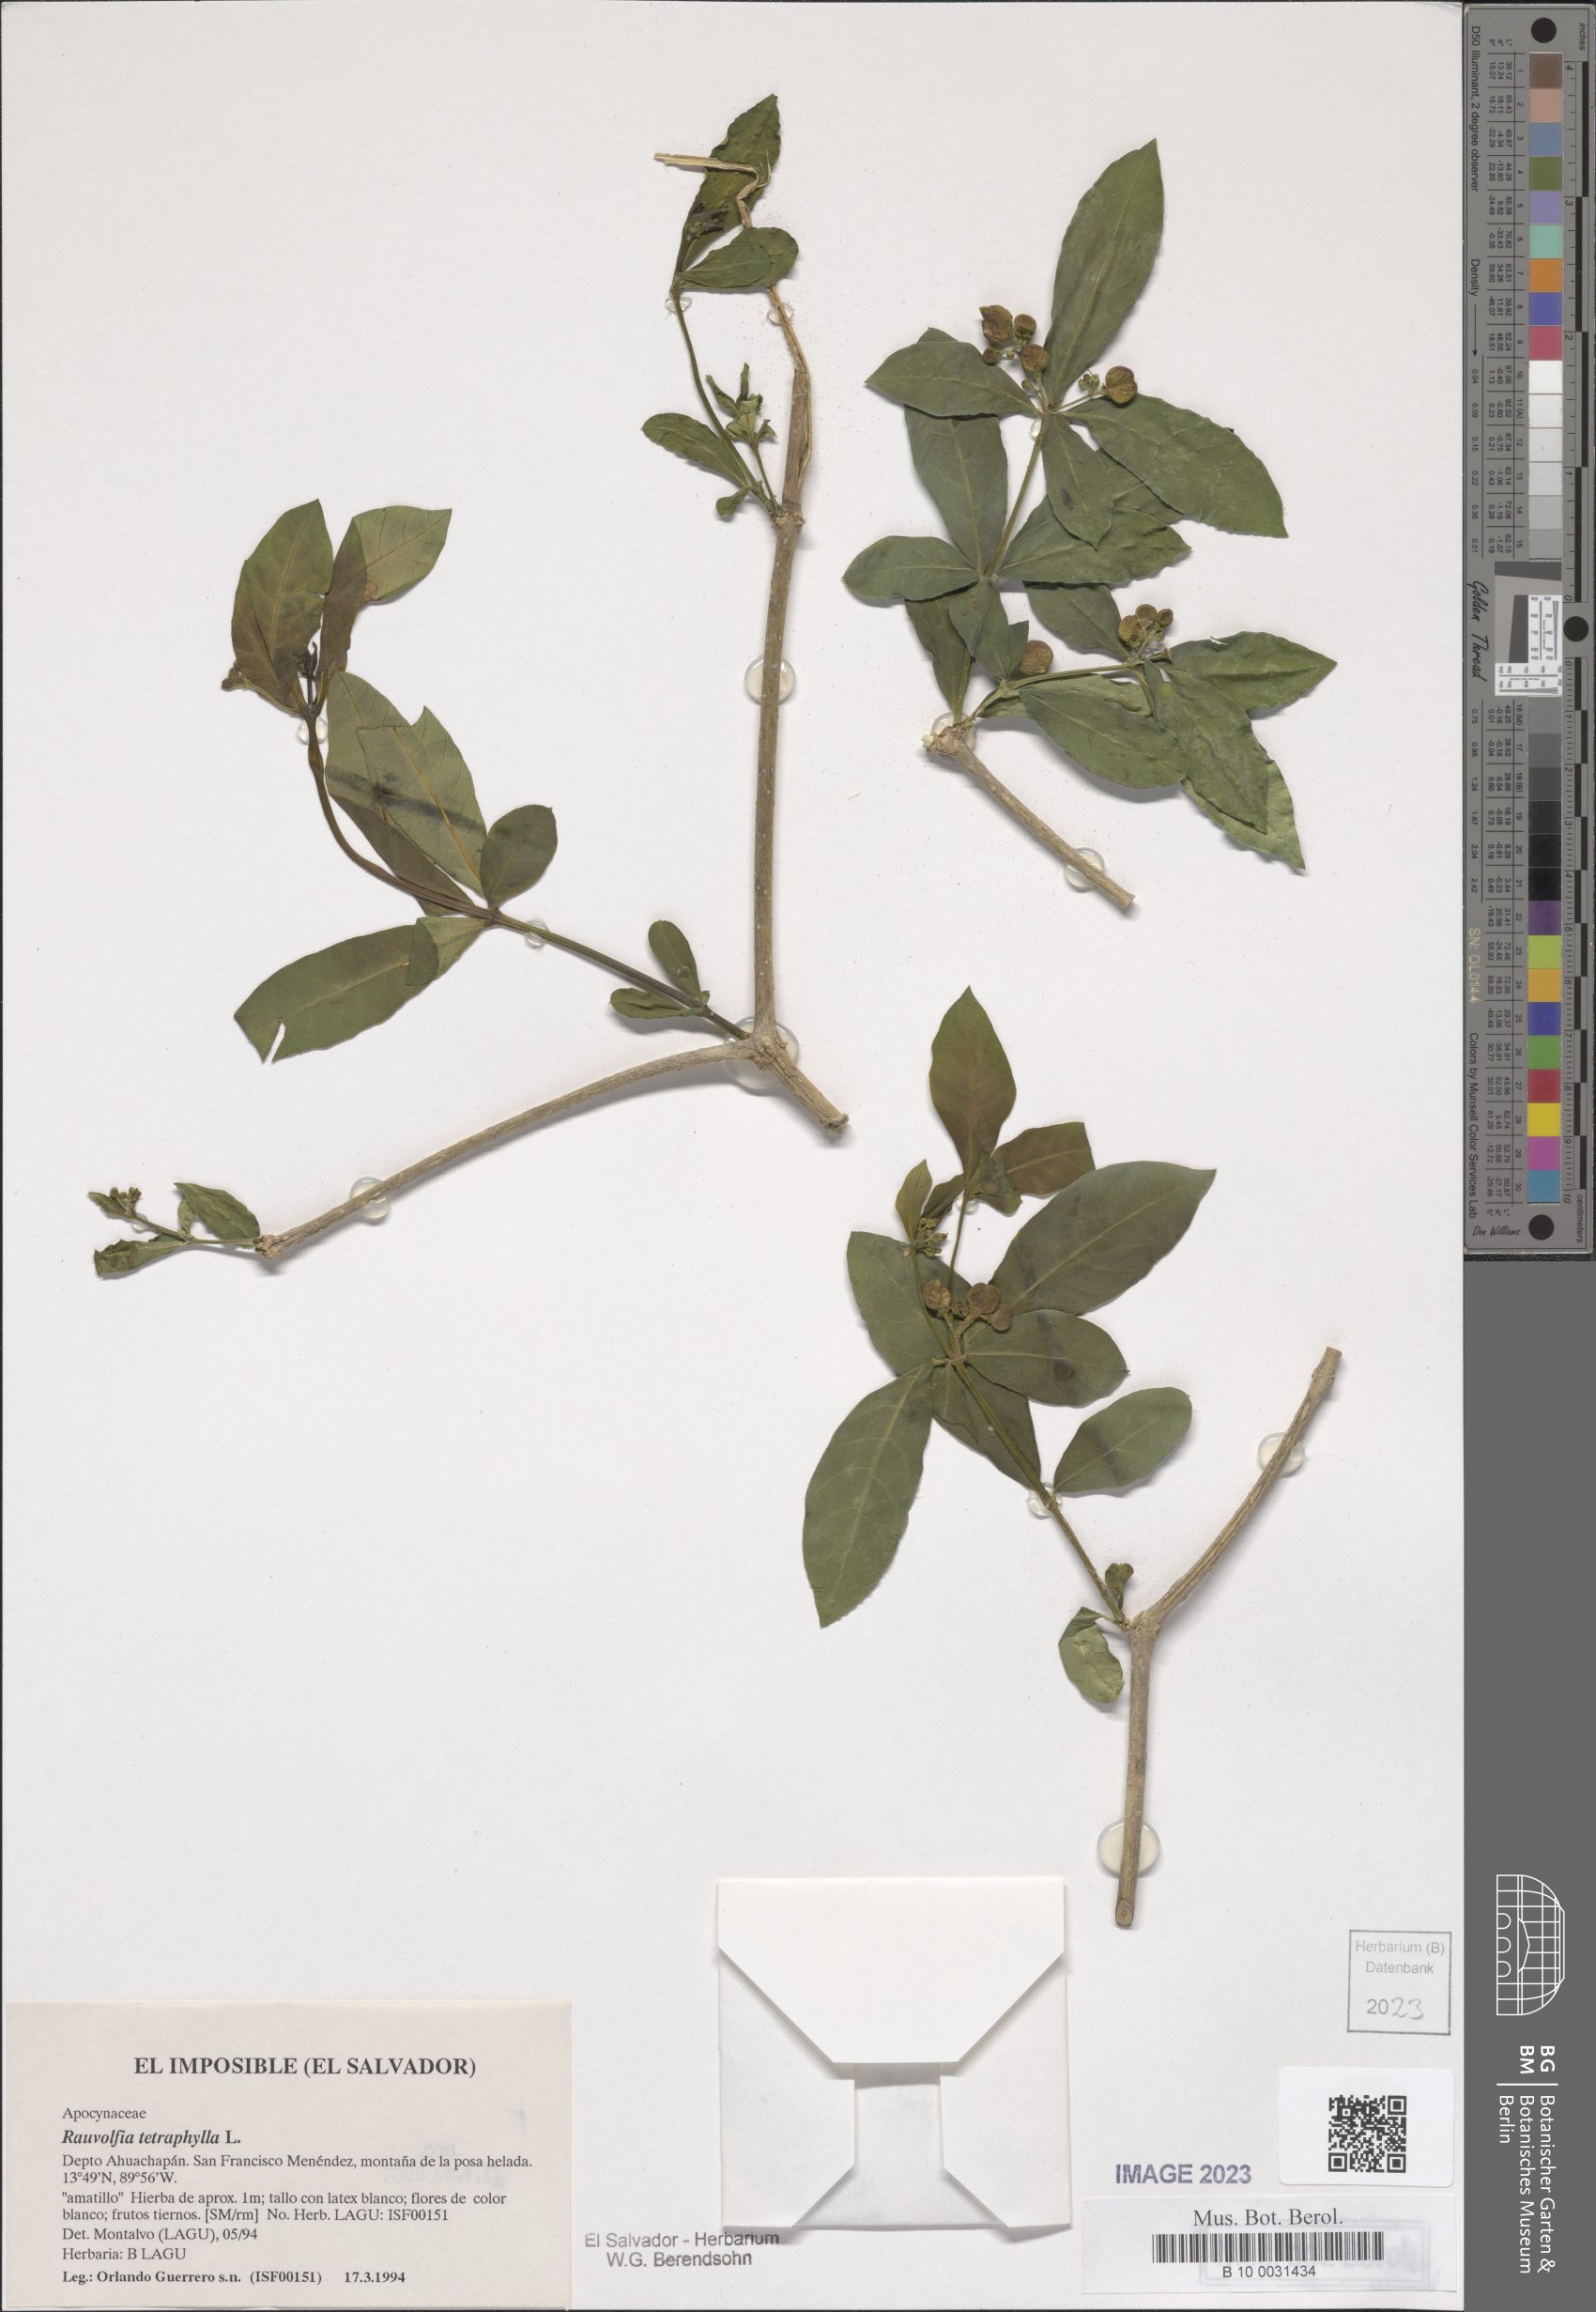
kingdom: Plantae
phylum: Tracheophyta
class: Magnoliopsida
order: Gentianales
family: Apocynaceae
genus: Rauvolfia
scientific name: Rauvolfia tetraphylla
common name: Four-leaf devil-pepper
